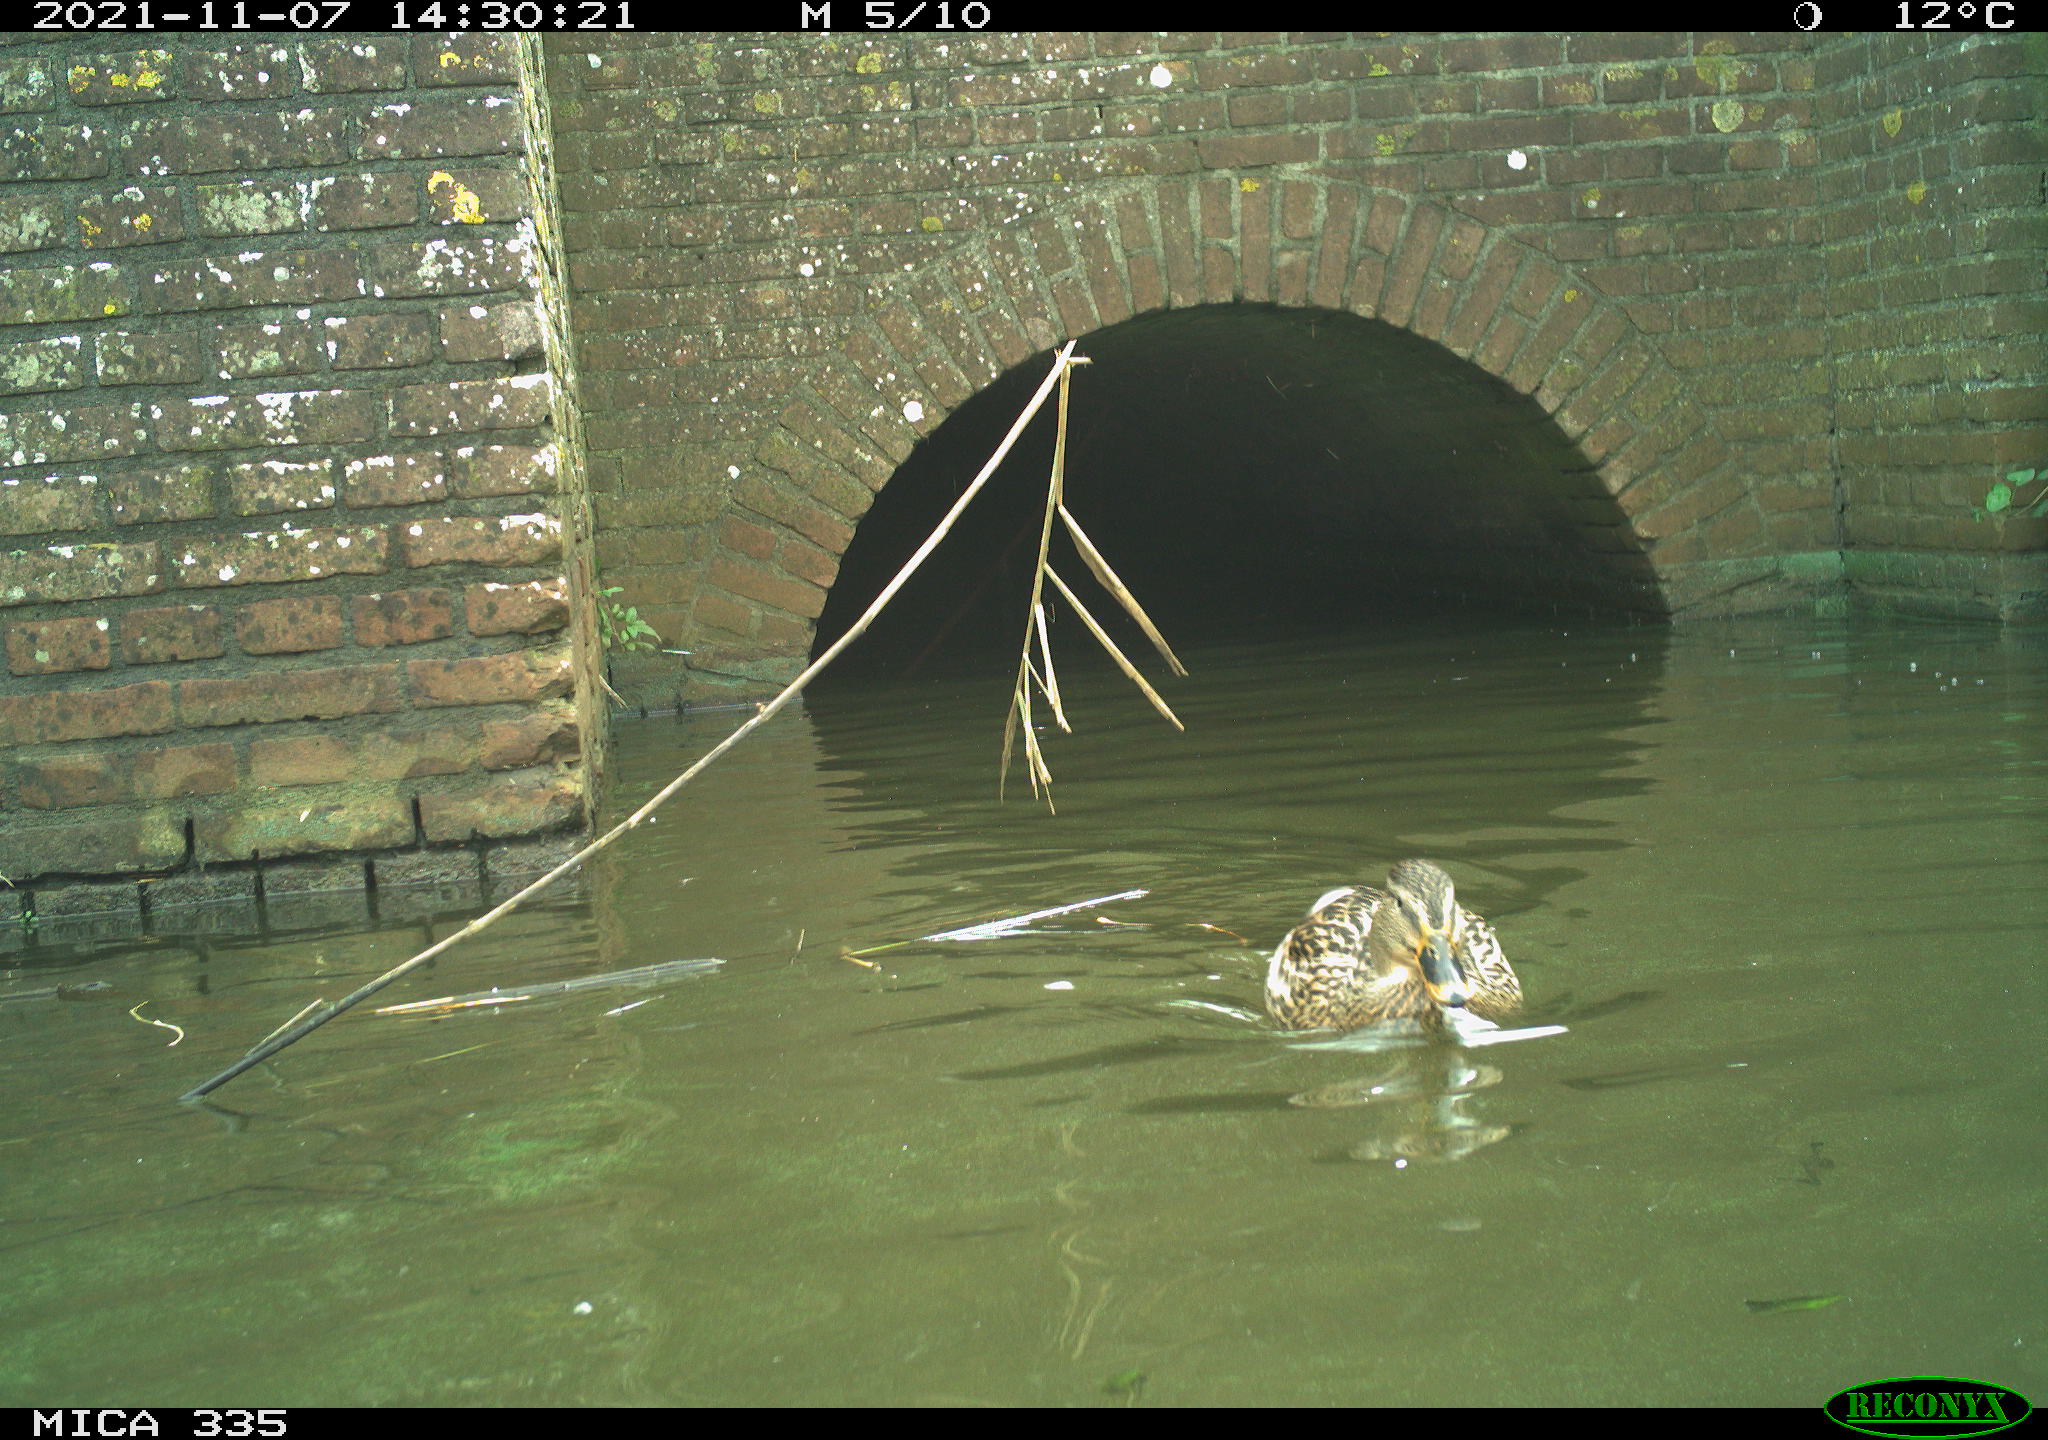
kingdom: Animalia
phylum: Chordata
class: Aves
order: Anseriformes
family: Anatidae
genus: Anas
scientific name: Anas platyrhynchos
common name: Mallard
